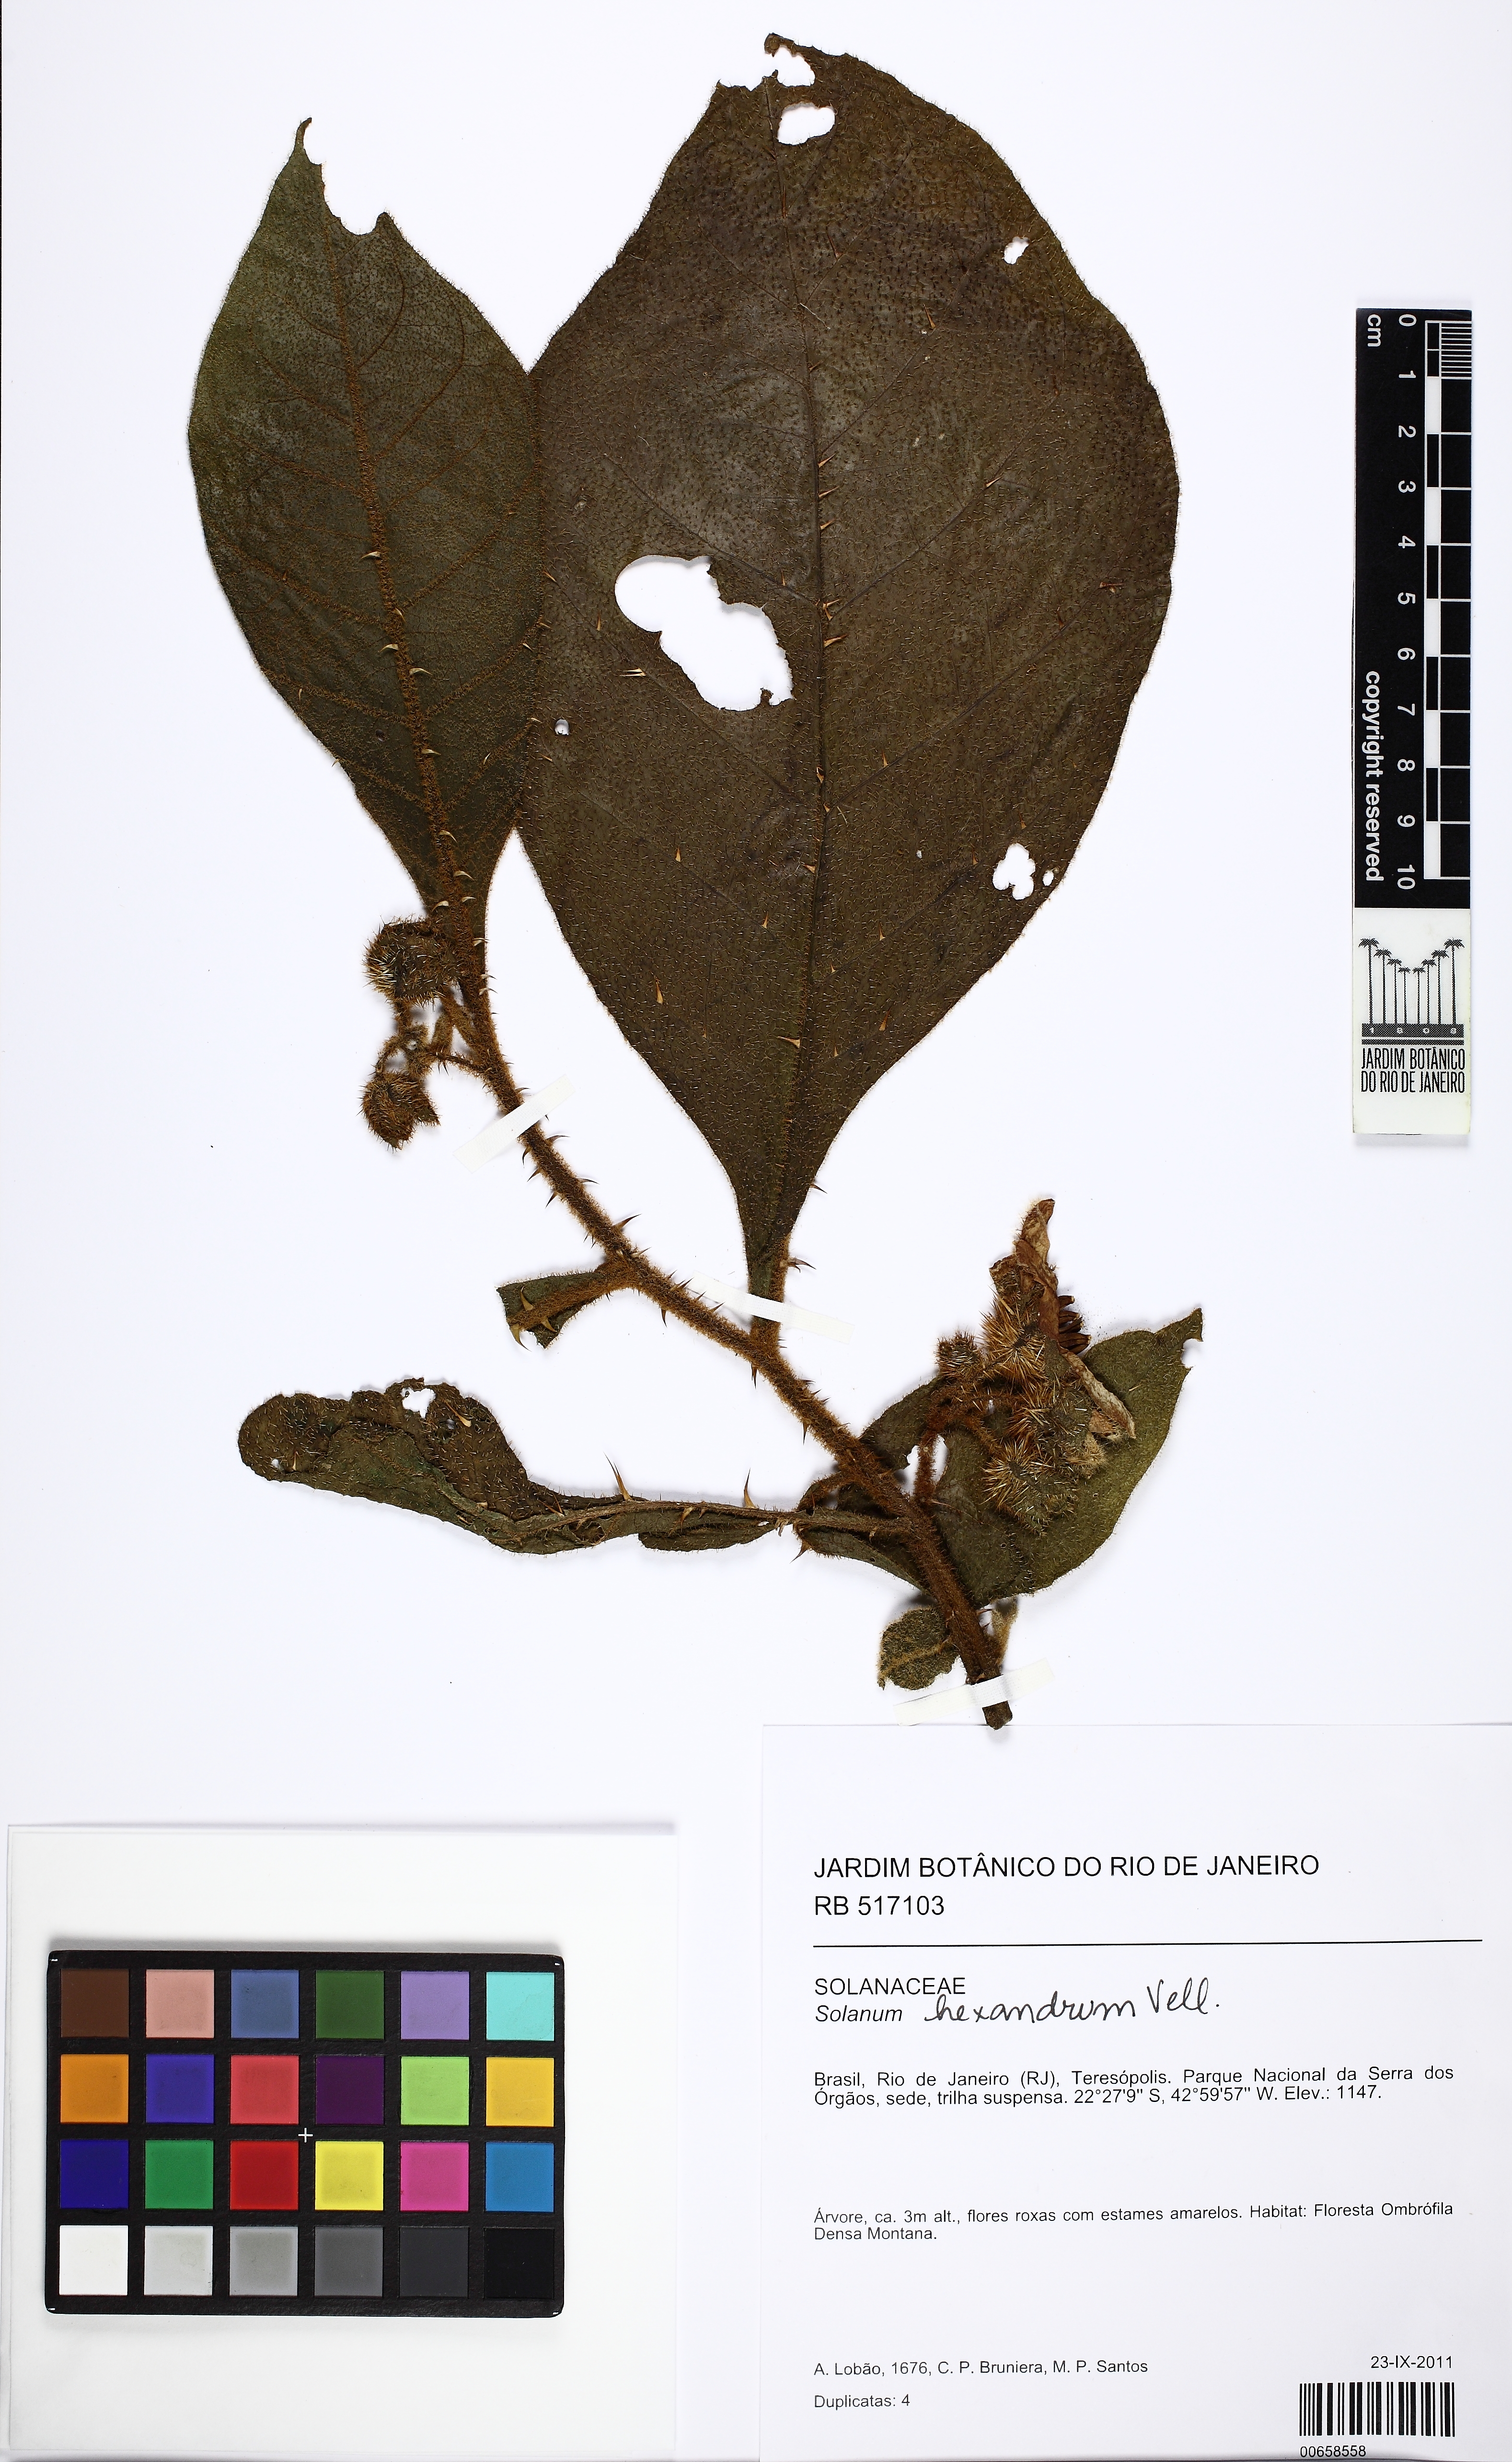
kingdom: Plantae
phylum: Tracheophyta
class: Magnoliopsida
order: Solanales
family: Solanaceae
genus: Solanum
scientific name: Solanum hexandrum
